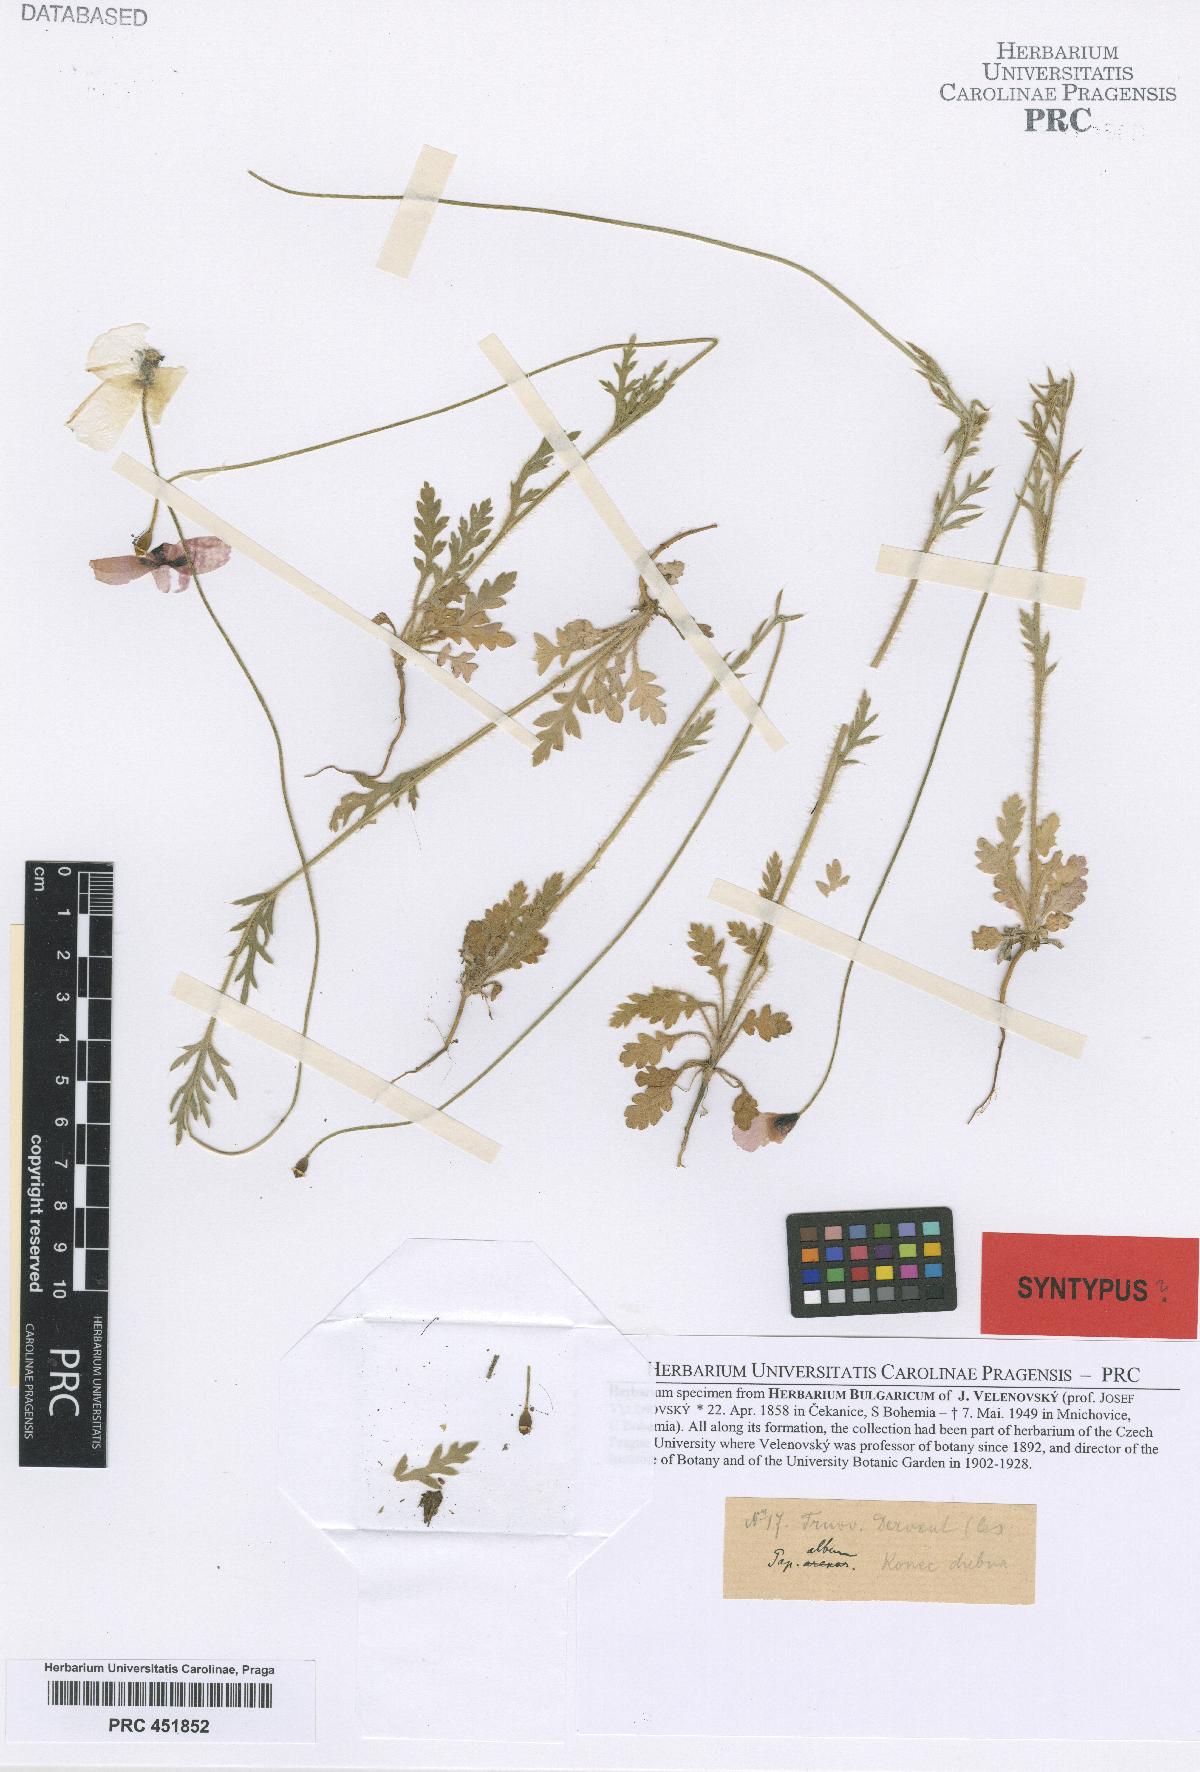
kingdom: Plantae
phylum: Tracheophyta
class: Magnoliopsida
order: Ranunculales
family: Papaveraceae
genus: Papaver
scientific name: Papaver dubium
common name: Long-headed poppy
